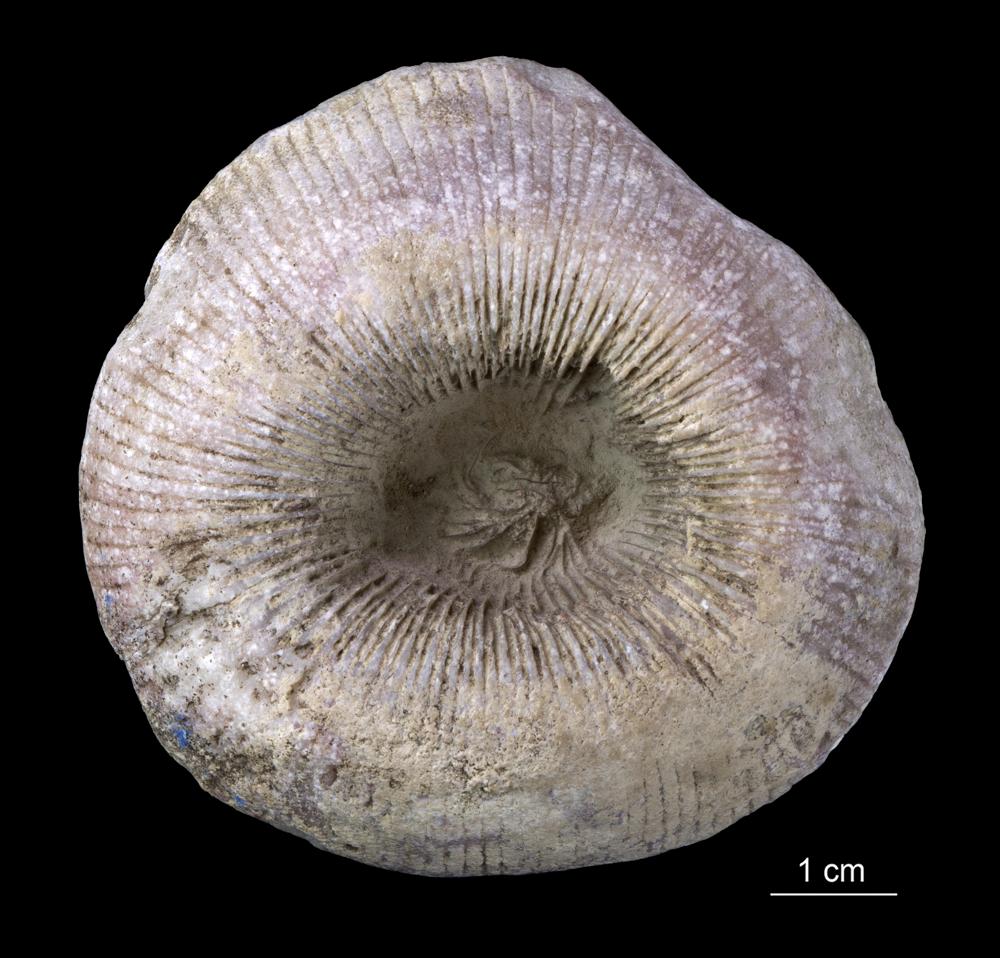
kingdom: Animalia
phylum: Cnidaria
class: Anthozoa
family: Kodonophyllidae
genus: Schlotheimophyllum
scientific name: Schlotheimophyllum
